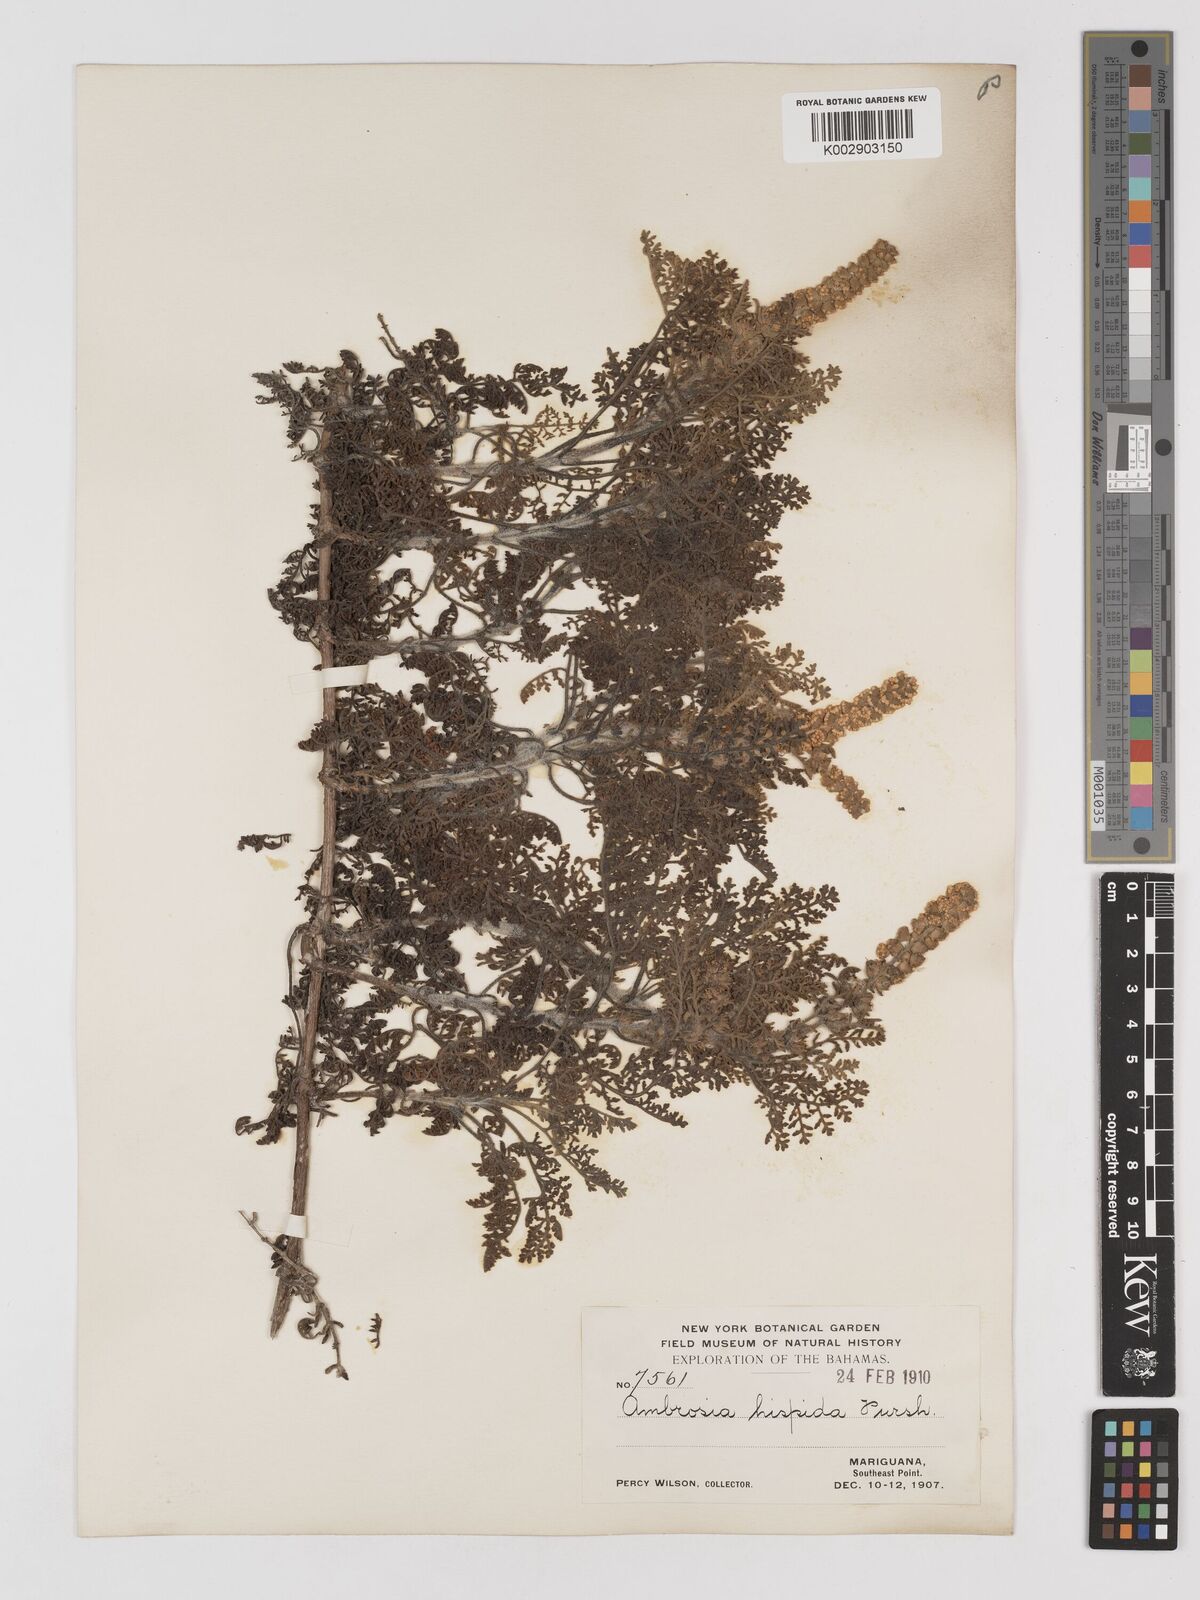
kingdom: Plantae
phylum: Tracheophyta
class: Magnoliopsida
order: Asterales
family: Asteraceae
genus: Ambrosia
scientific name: Ambrosia hispida
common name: Coastal ragweed
